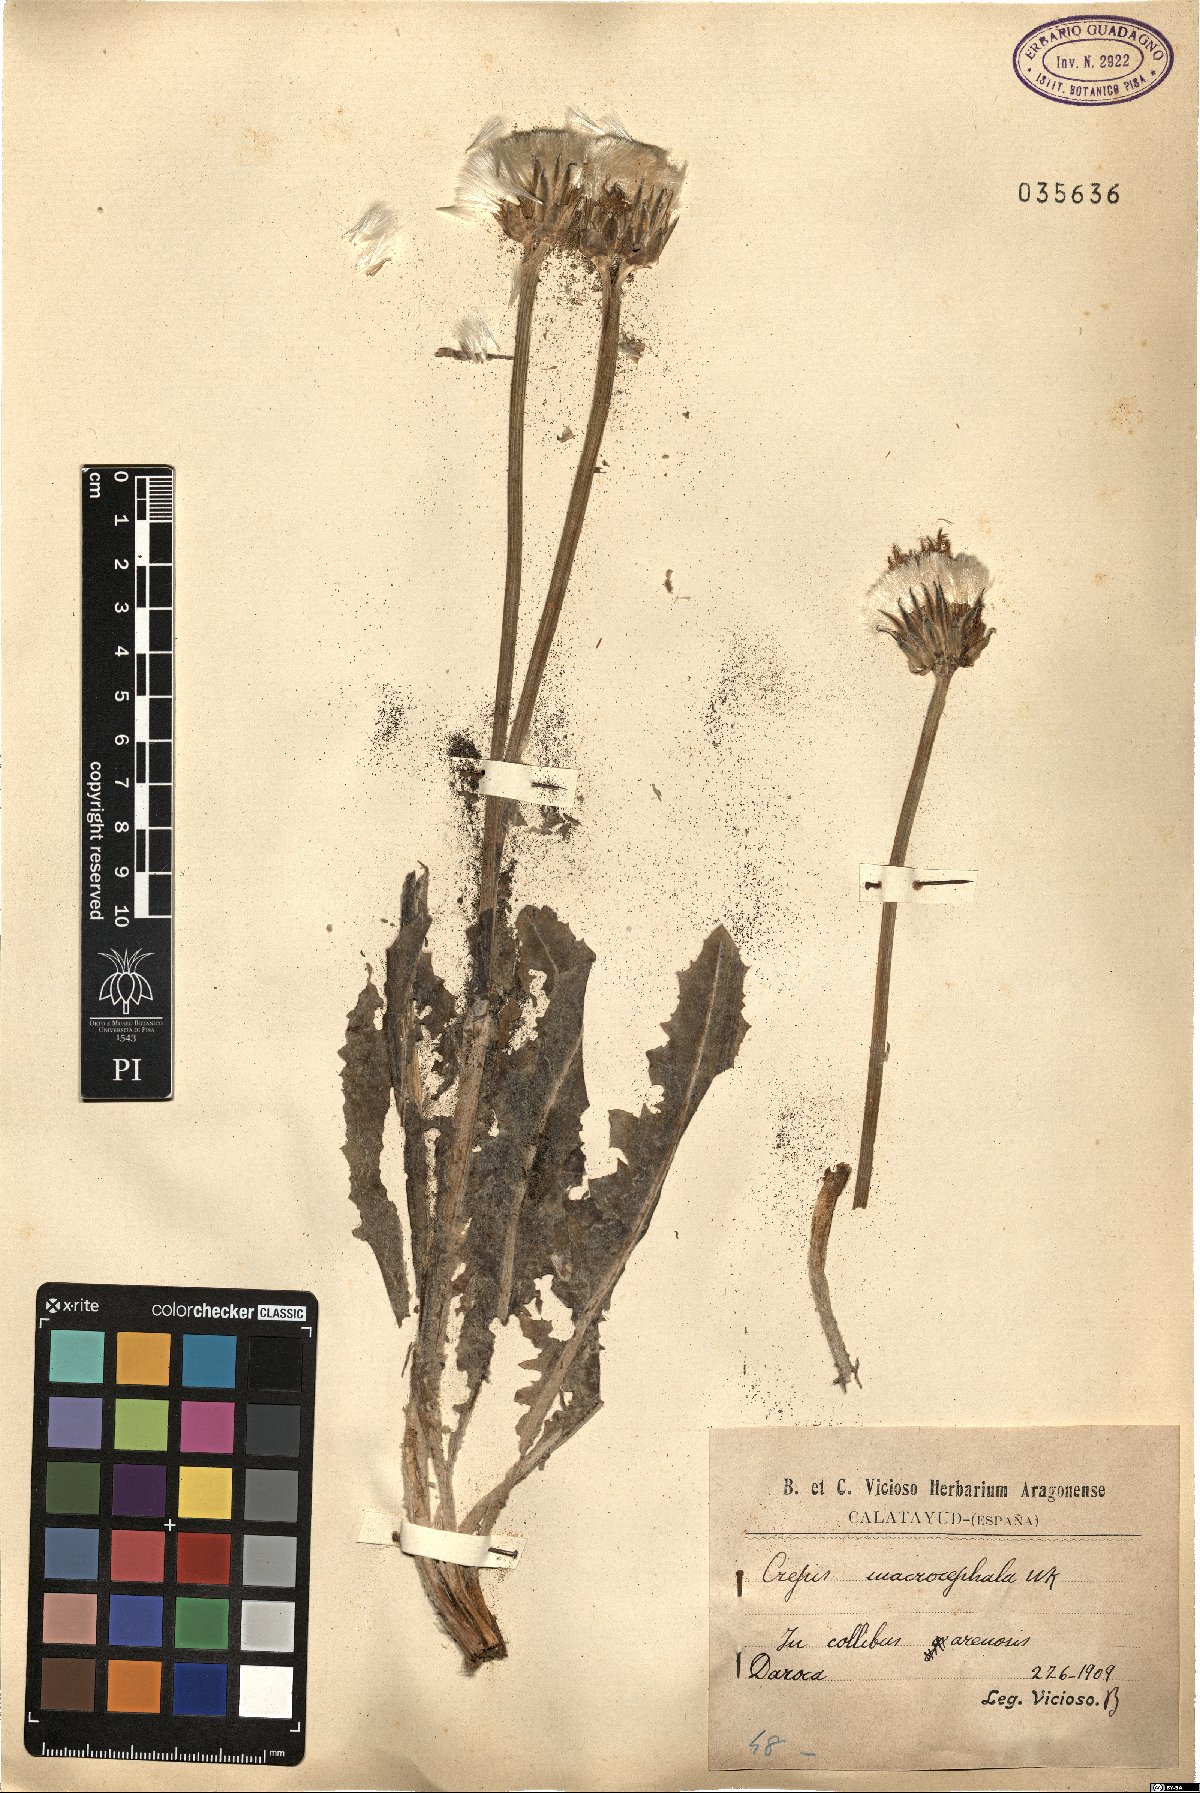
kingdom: Plantae
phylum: Tracheophyta
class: Magnoliopsida
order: Asterales
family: Asteraceae
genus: Crepis
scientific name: Crepis albida
